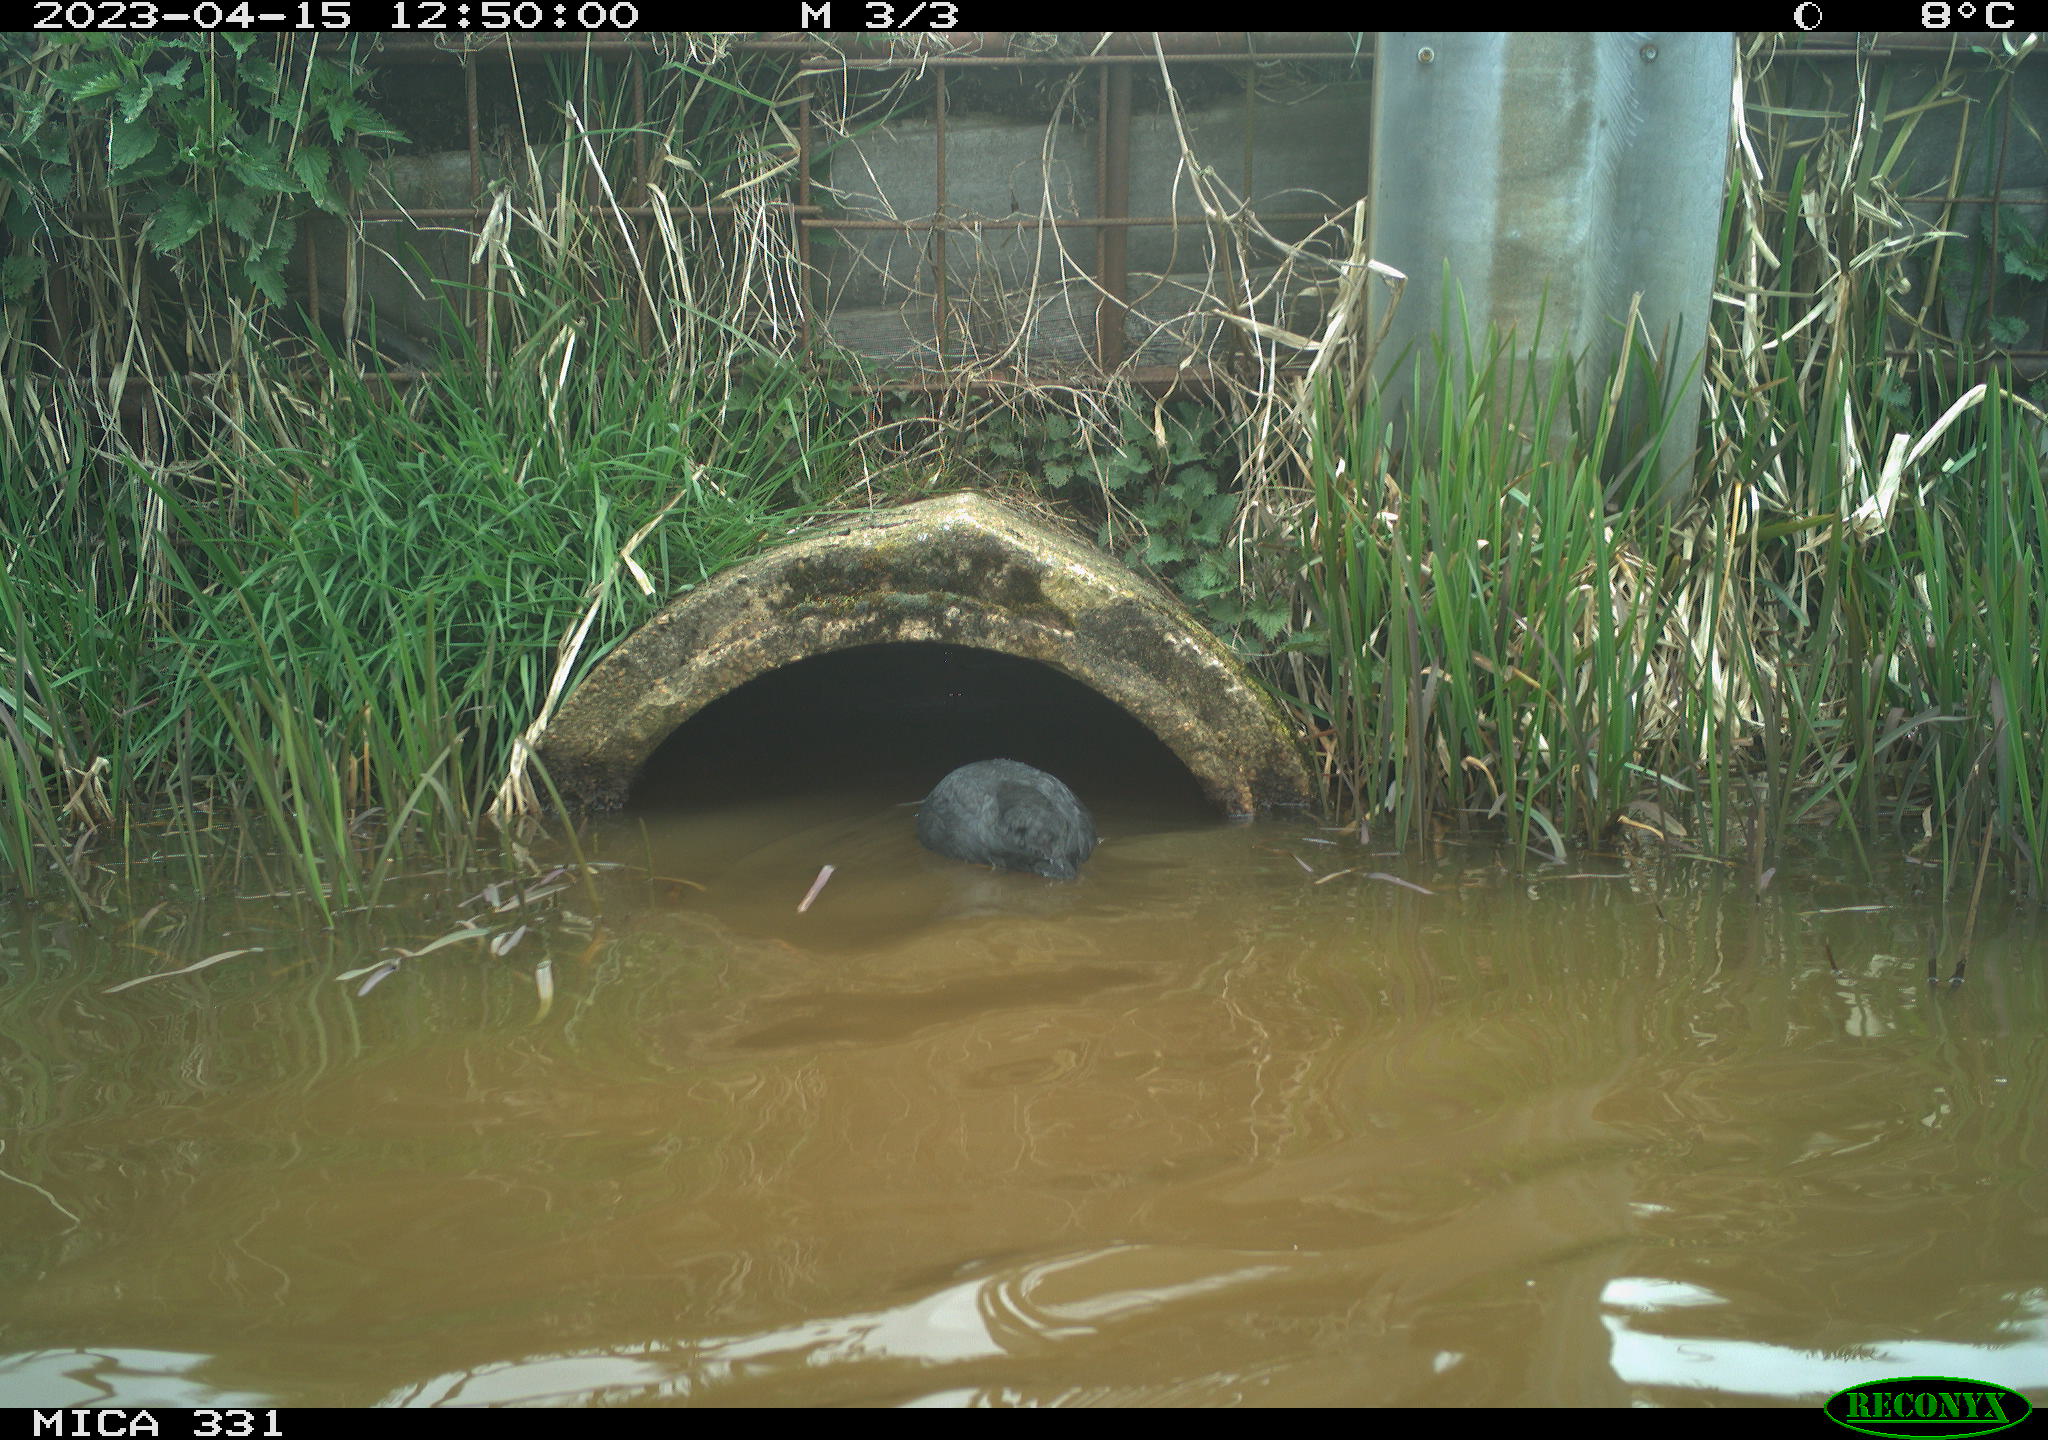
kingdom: Animalia
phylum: Chordata
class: Aves
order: Gruiformes
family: Rallidae
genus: Fulica
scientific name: Fulica atra
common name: Eurasian coot
